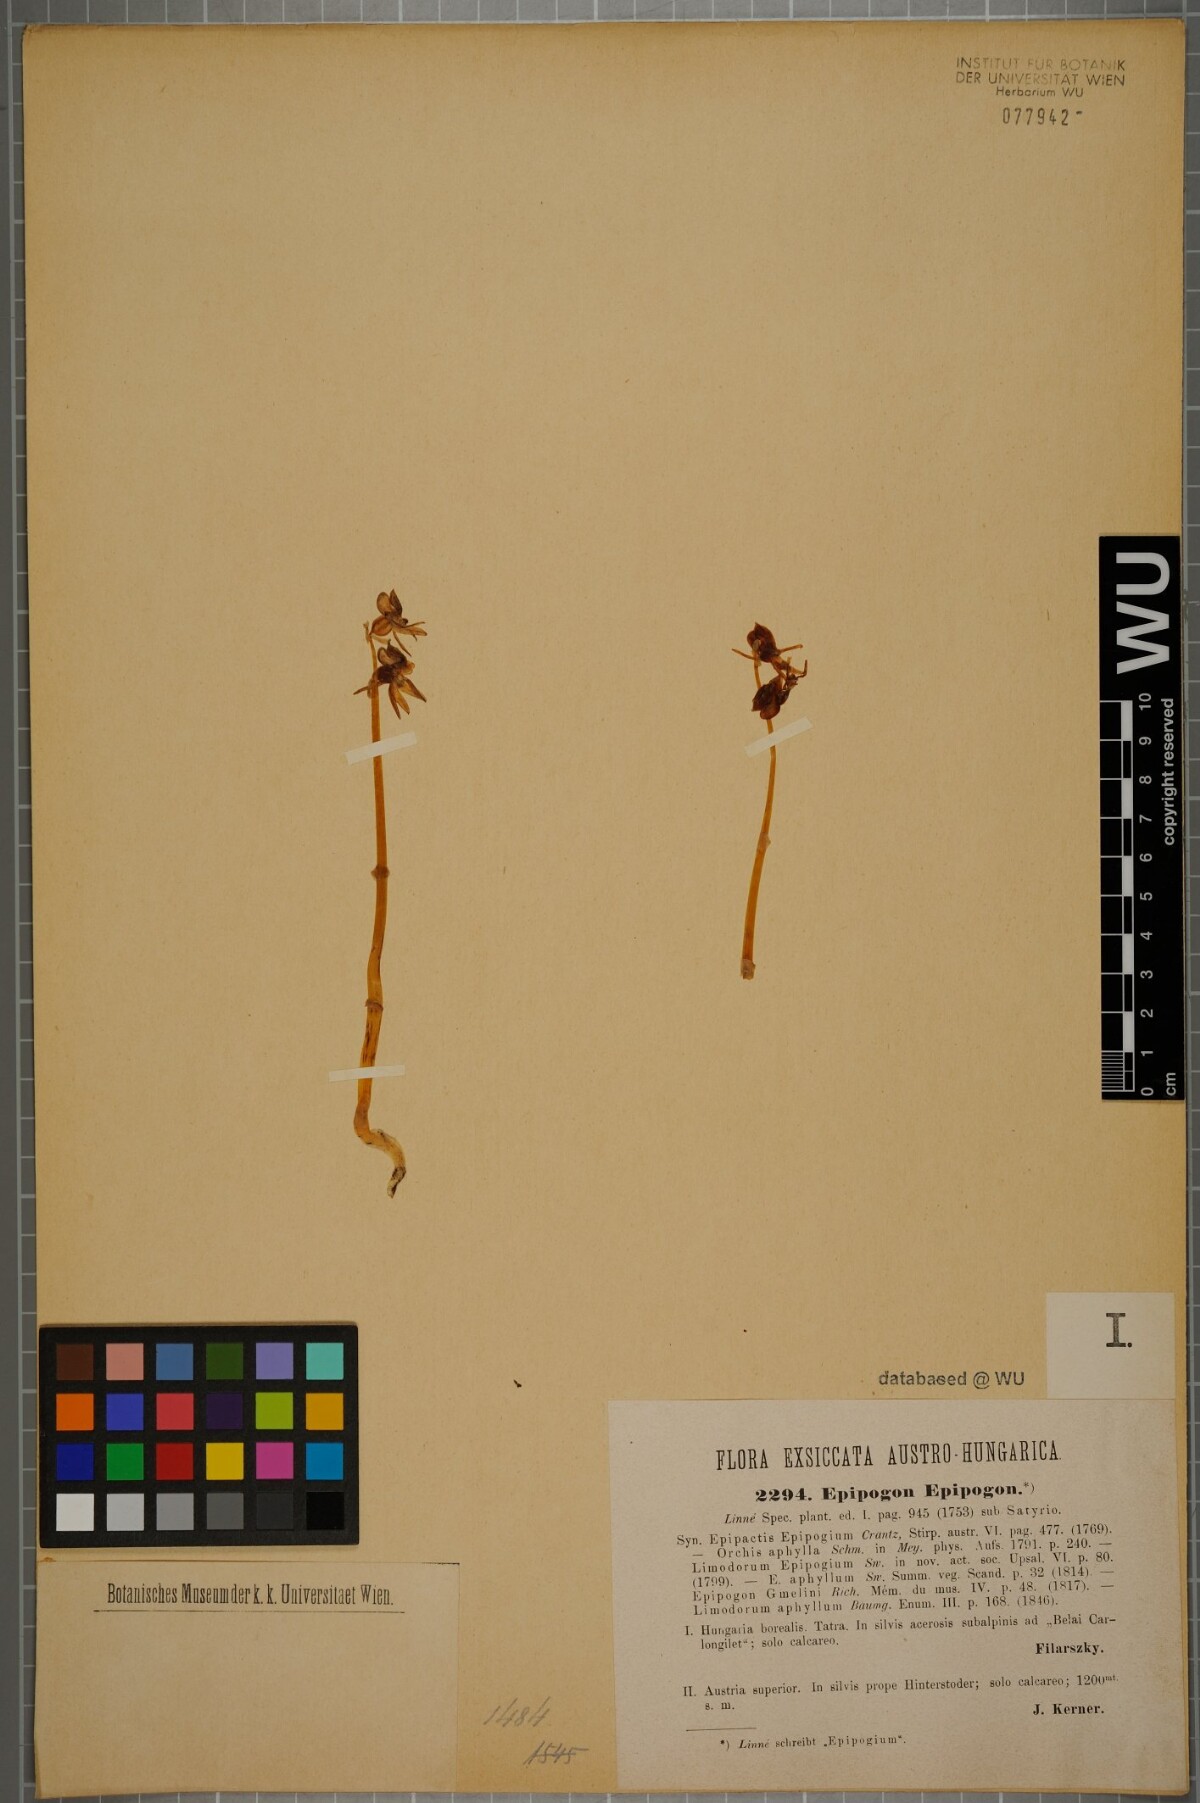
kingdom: Plantae
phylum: Tracheophyta
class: Liliopsida
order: Asparagales
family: Orchidaceae
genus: Epipogium
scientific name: Epipogium aphyllum
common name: Ghost orchid
